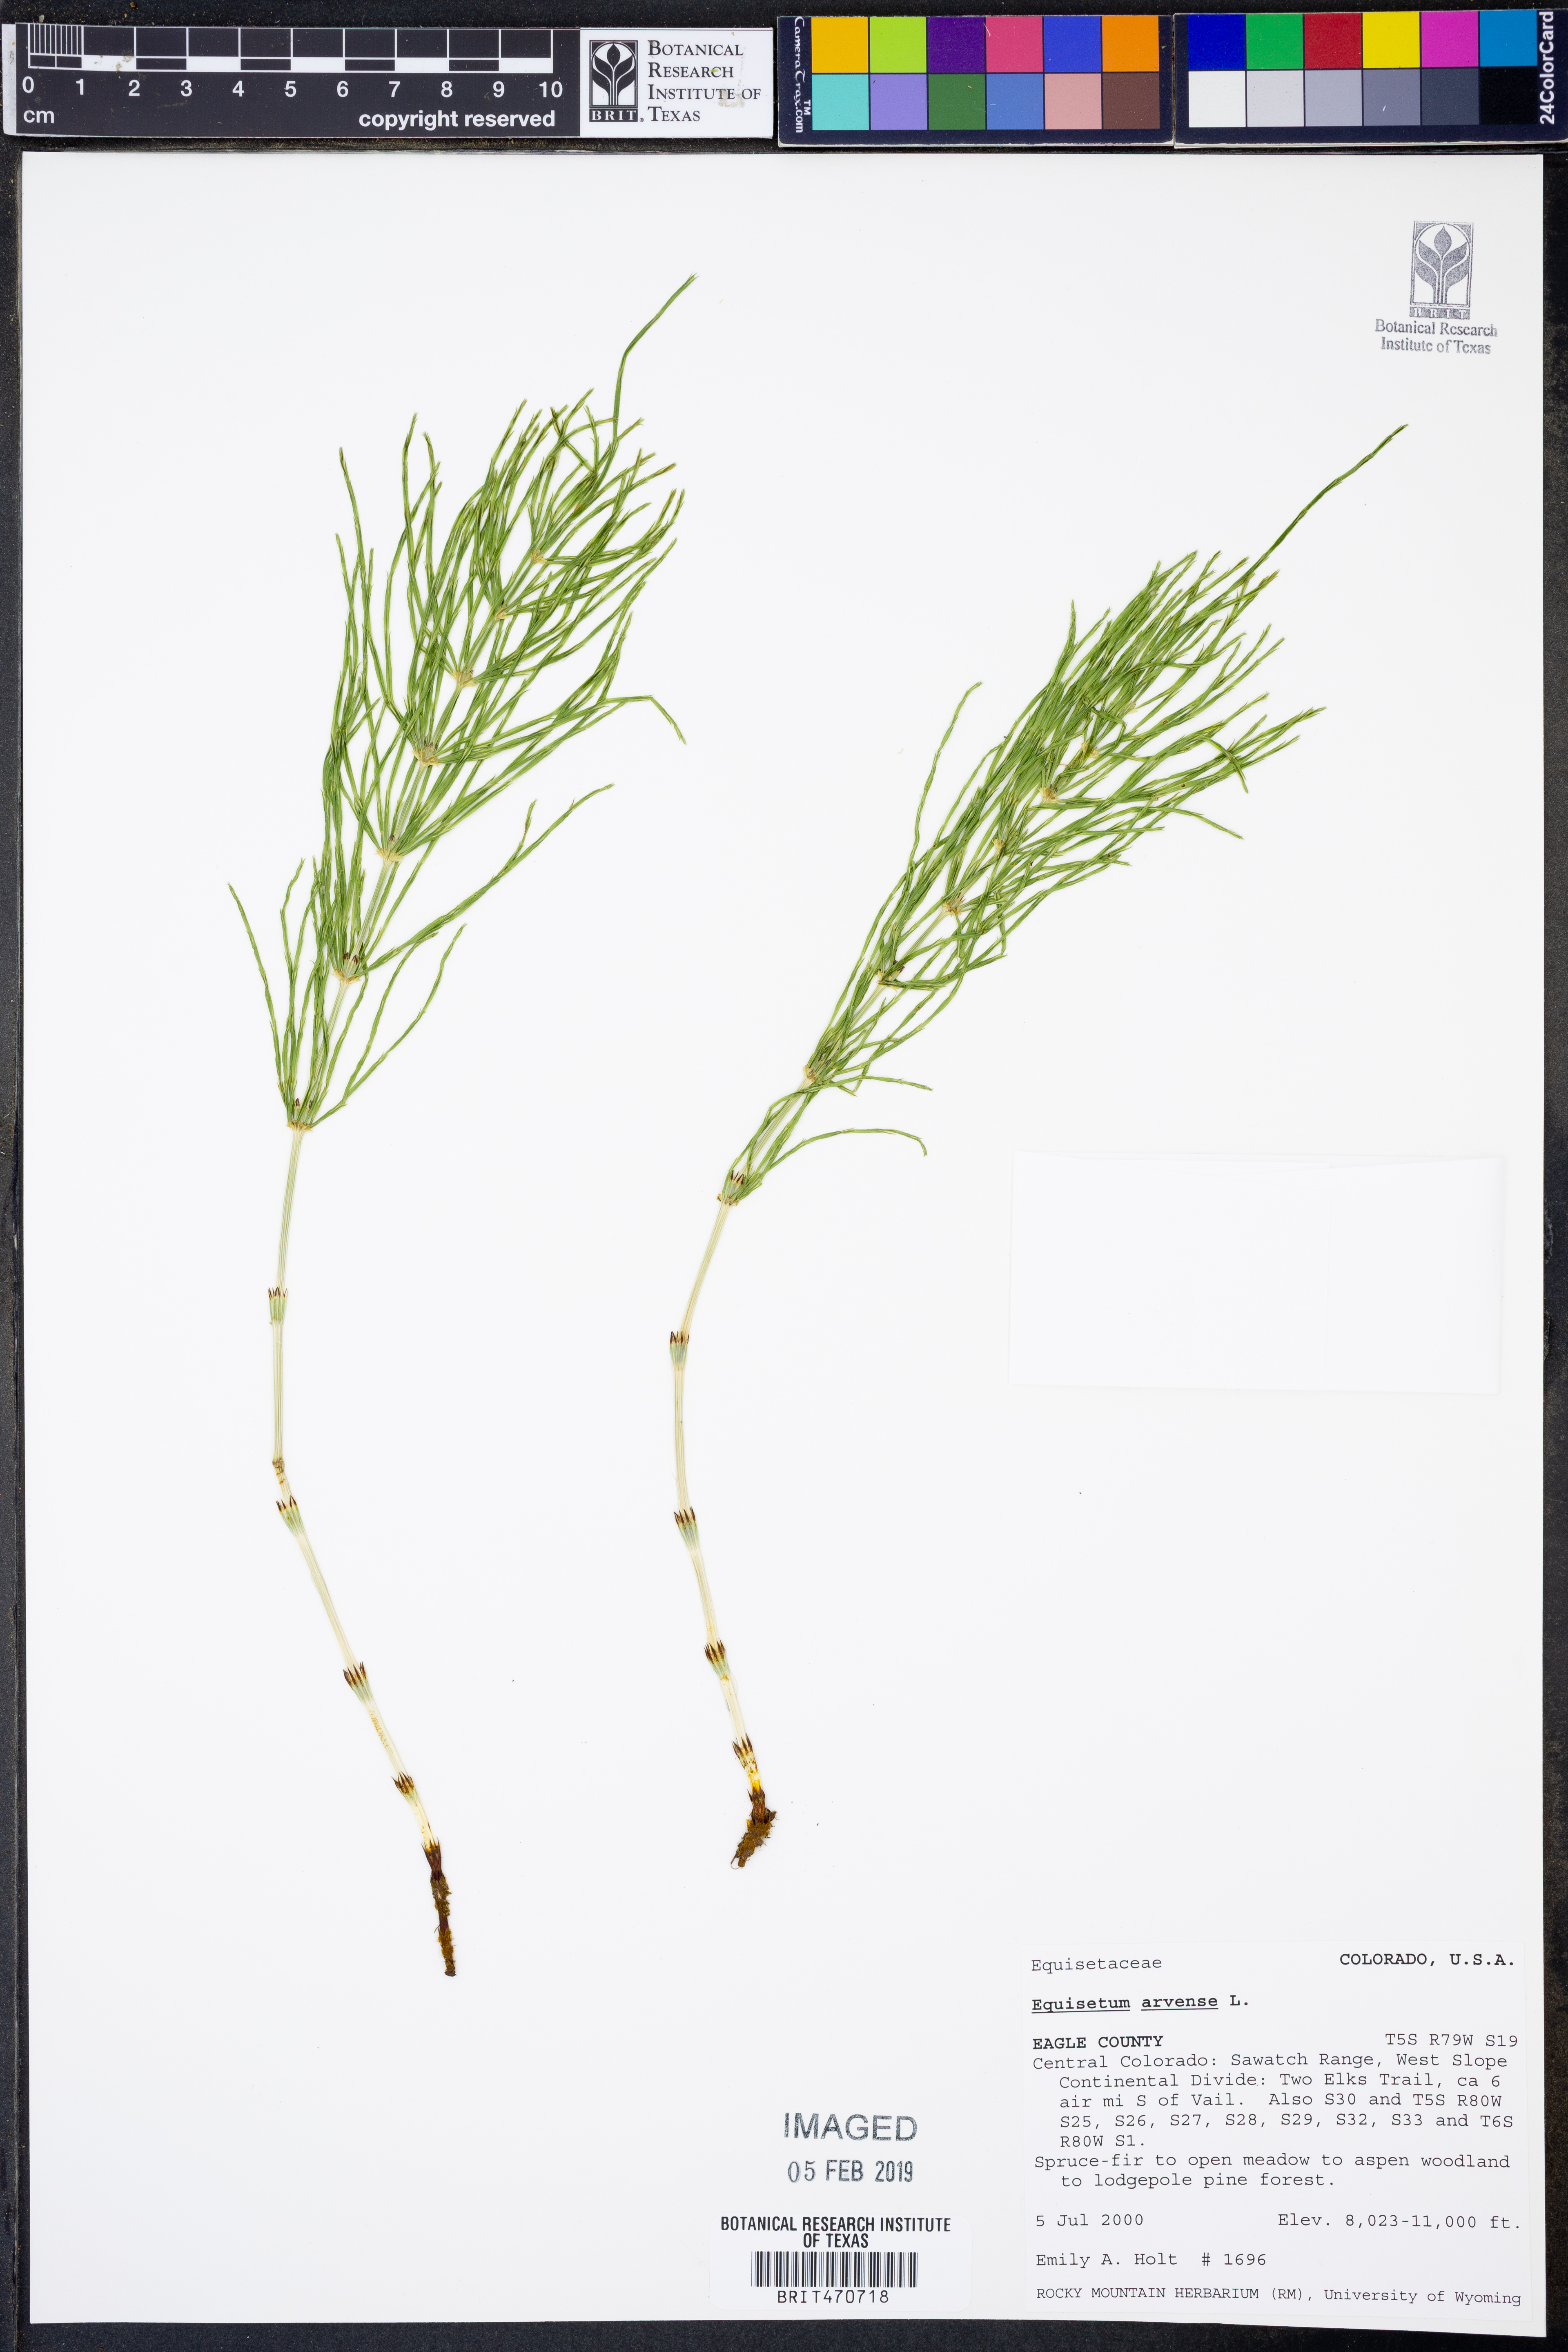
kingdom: Plantae
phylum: Tracheophyta
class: Polypodiopsida
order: Equisetales
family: Equisetaceae
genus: Equisetum
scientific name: Equisetum arvense
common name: Field horsetail
